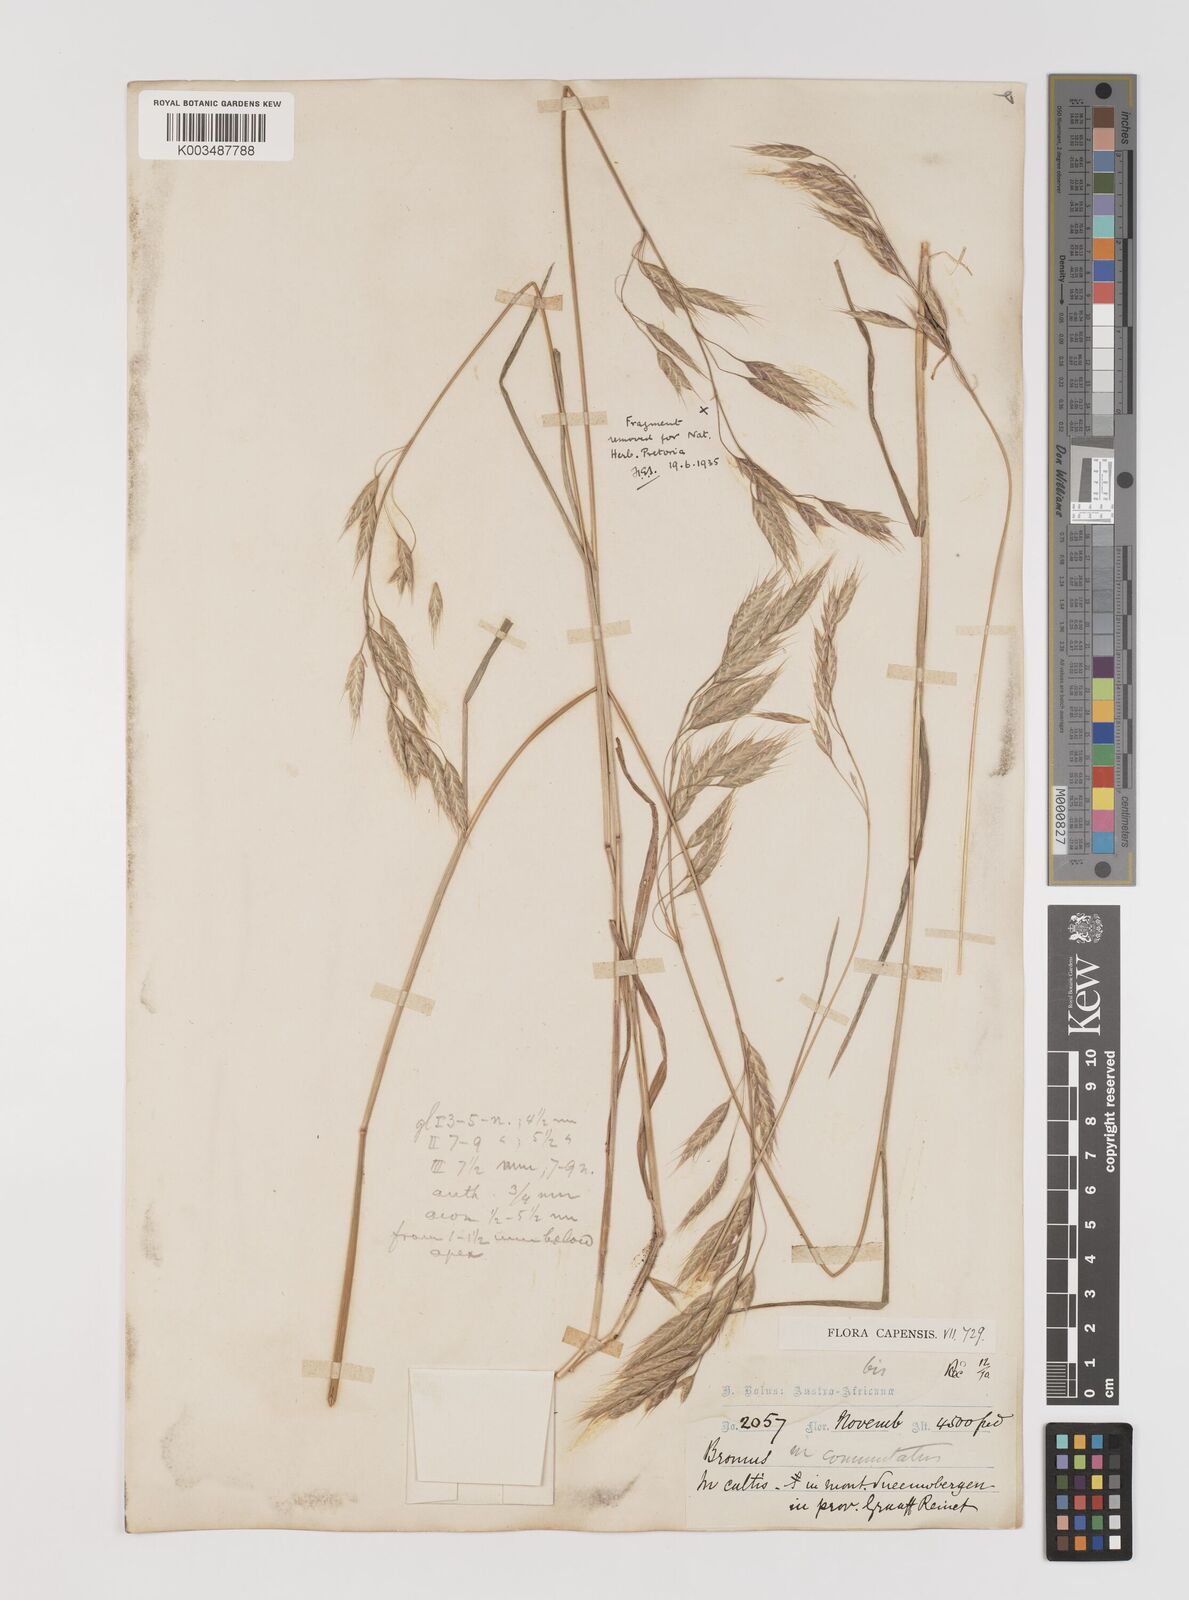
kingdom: Plantae
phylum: Tracheophyta
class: Liliopsida
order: Poales
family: Poaceae
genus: Bromus
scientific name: Bromus racemosus
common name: Bald brome
